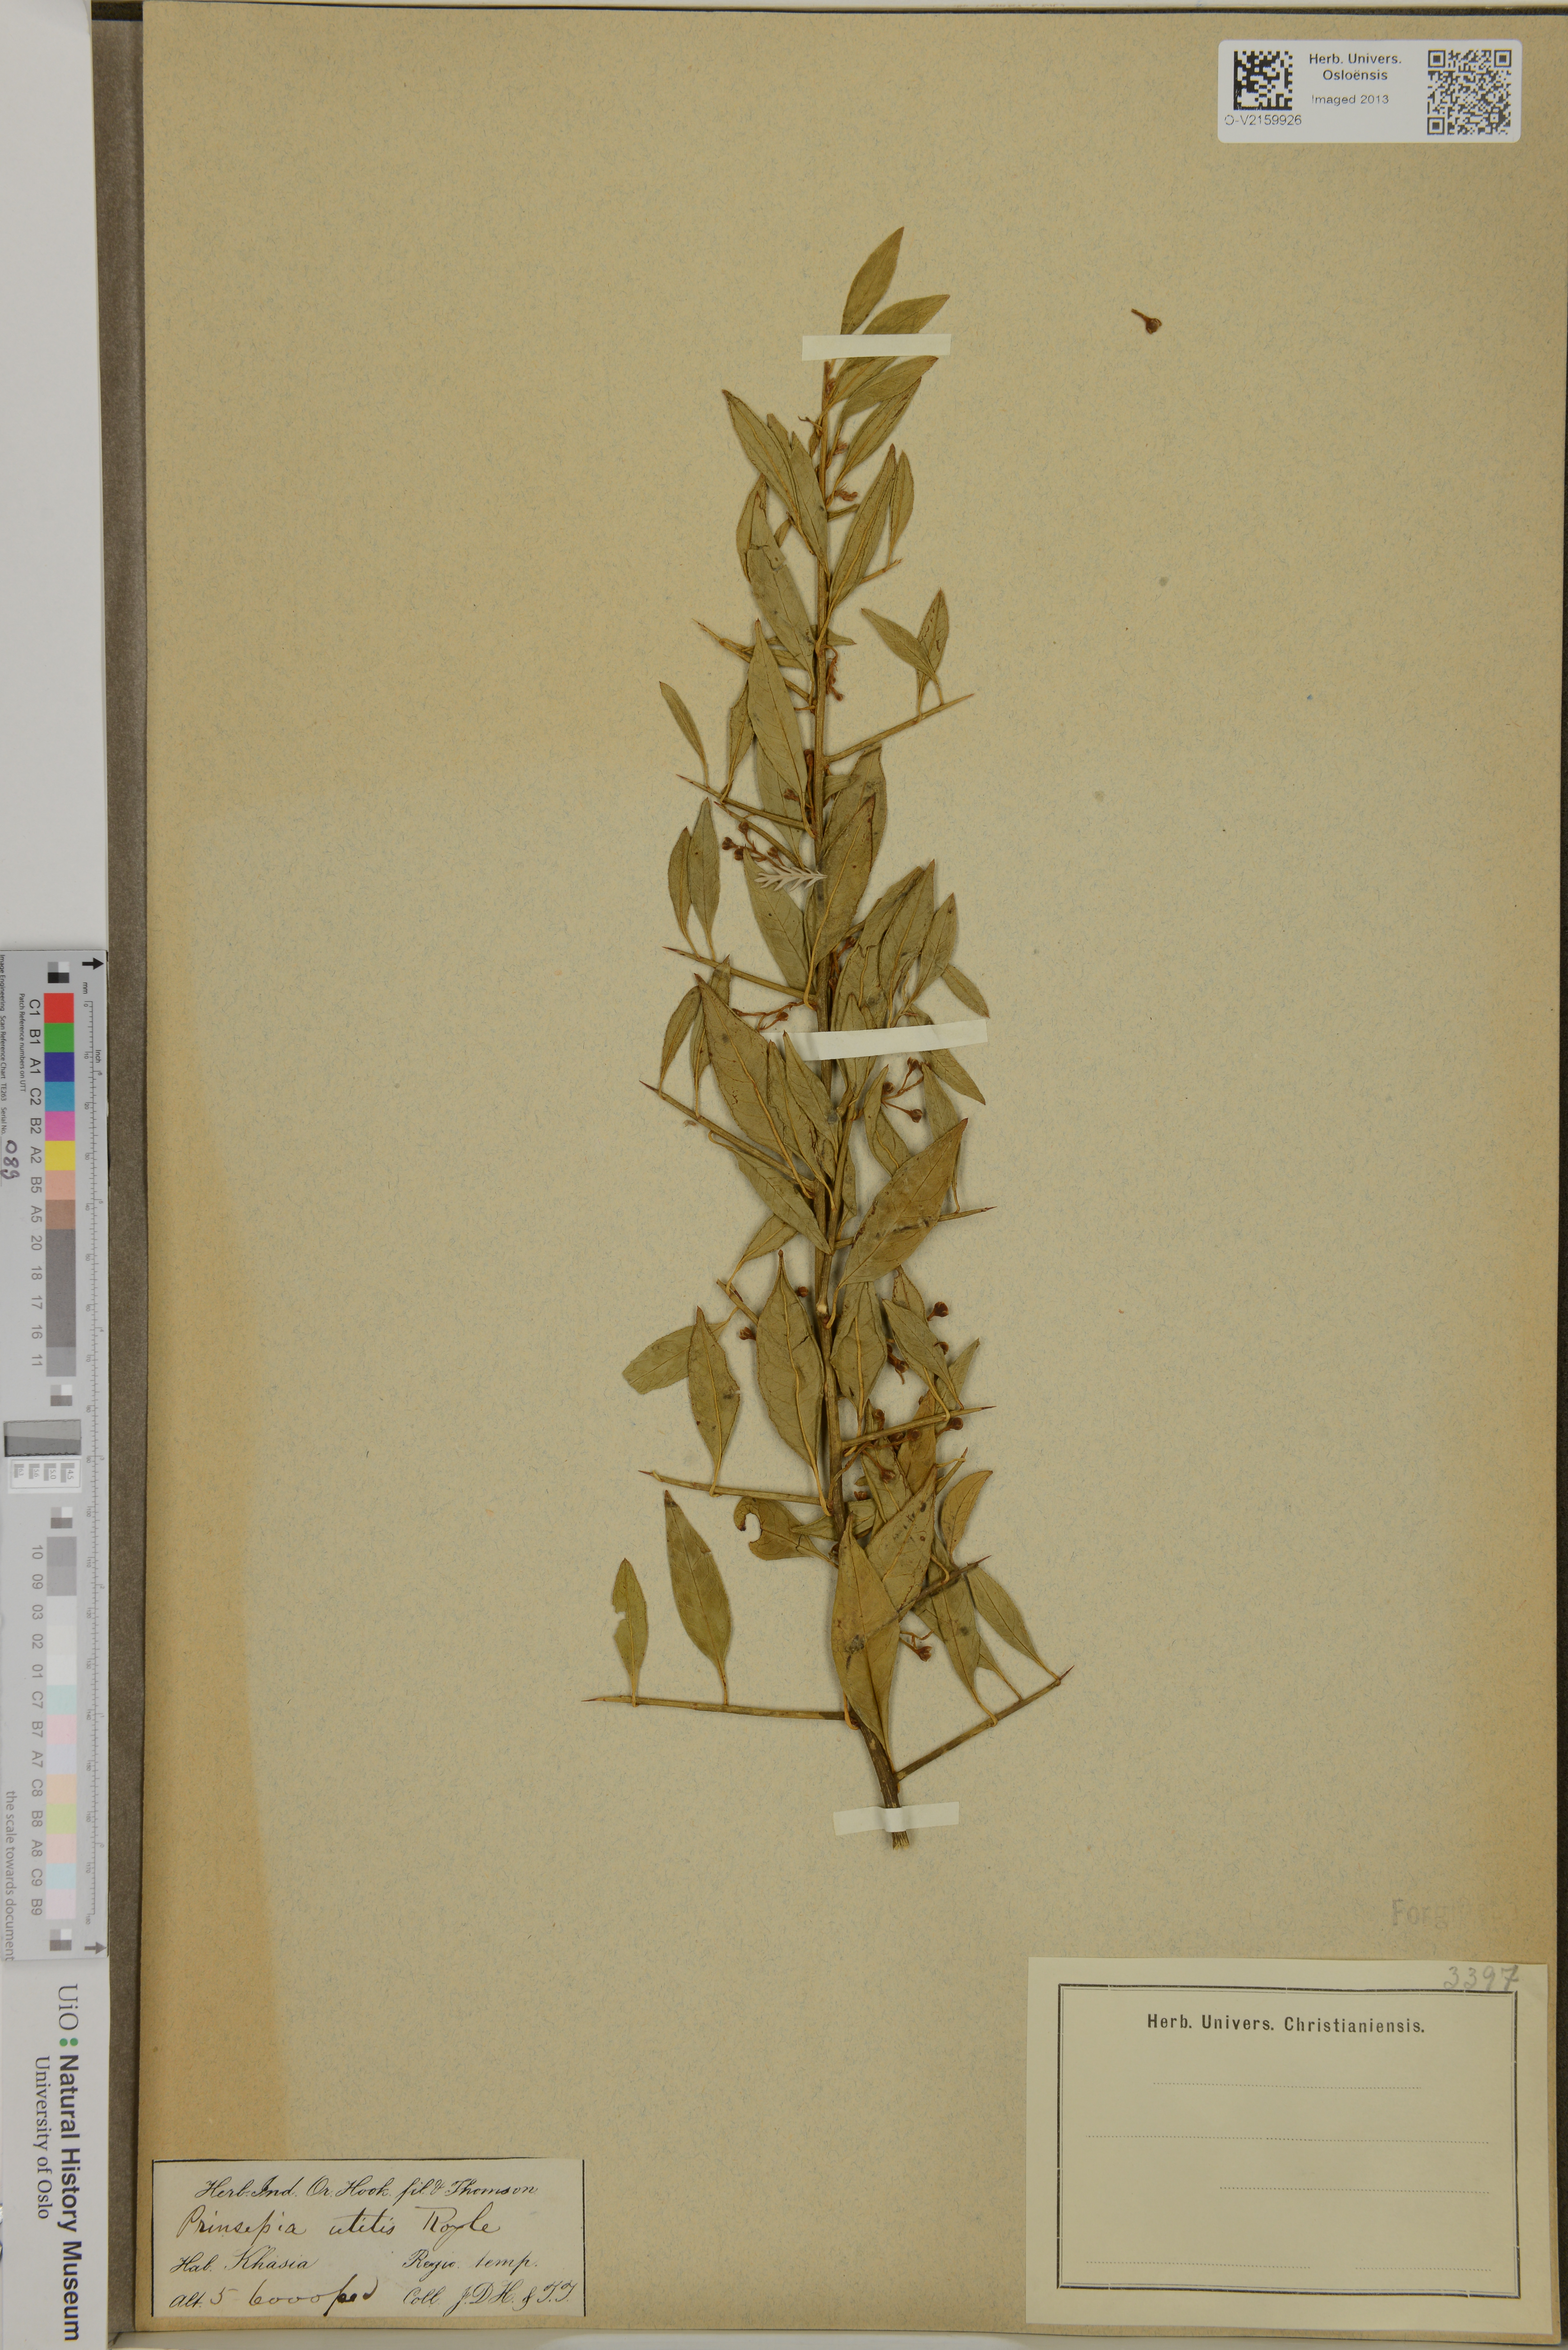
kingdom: Plantae
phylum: Tracheophyta
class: Magnoliopsida
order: Rosales
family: Rosaceae
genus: Prinsepia
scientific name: Prinsepia utilis
